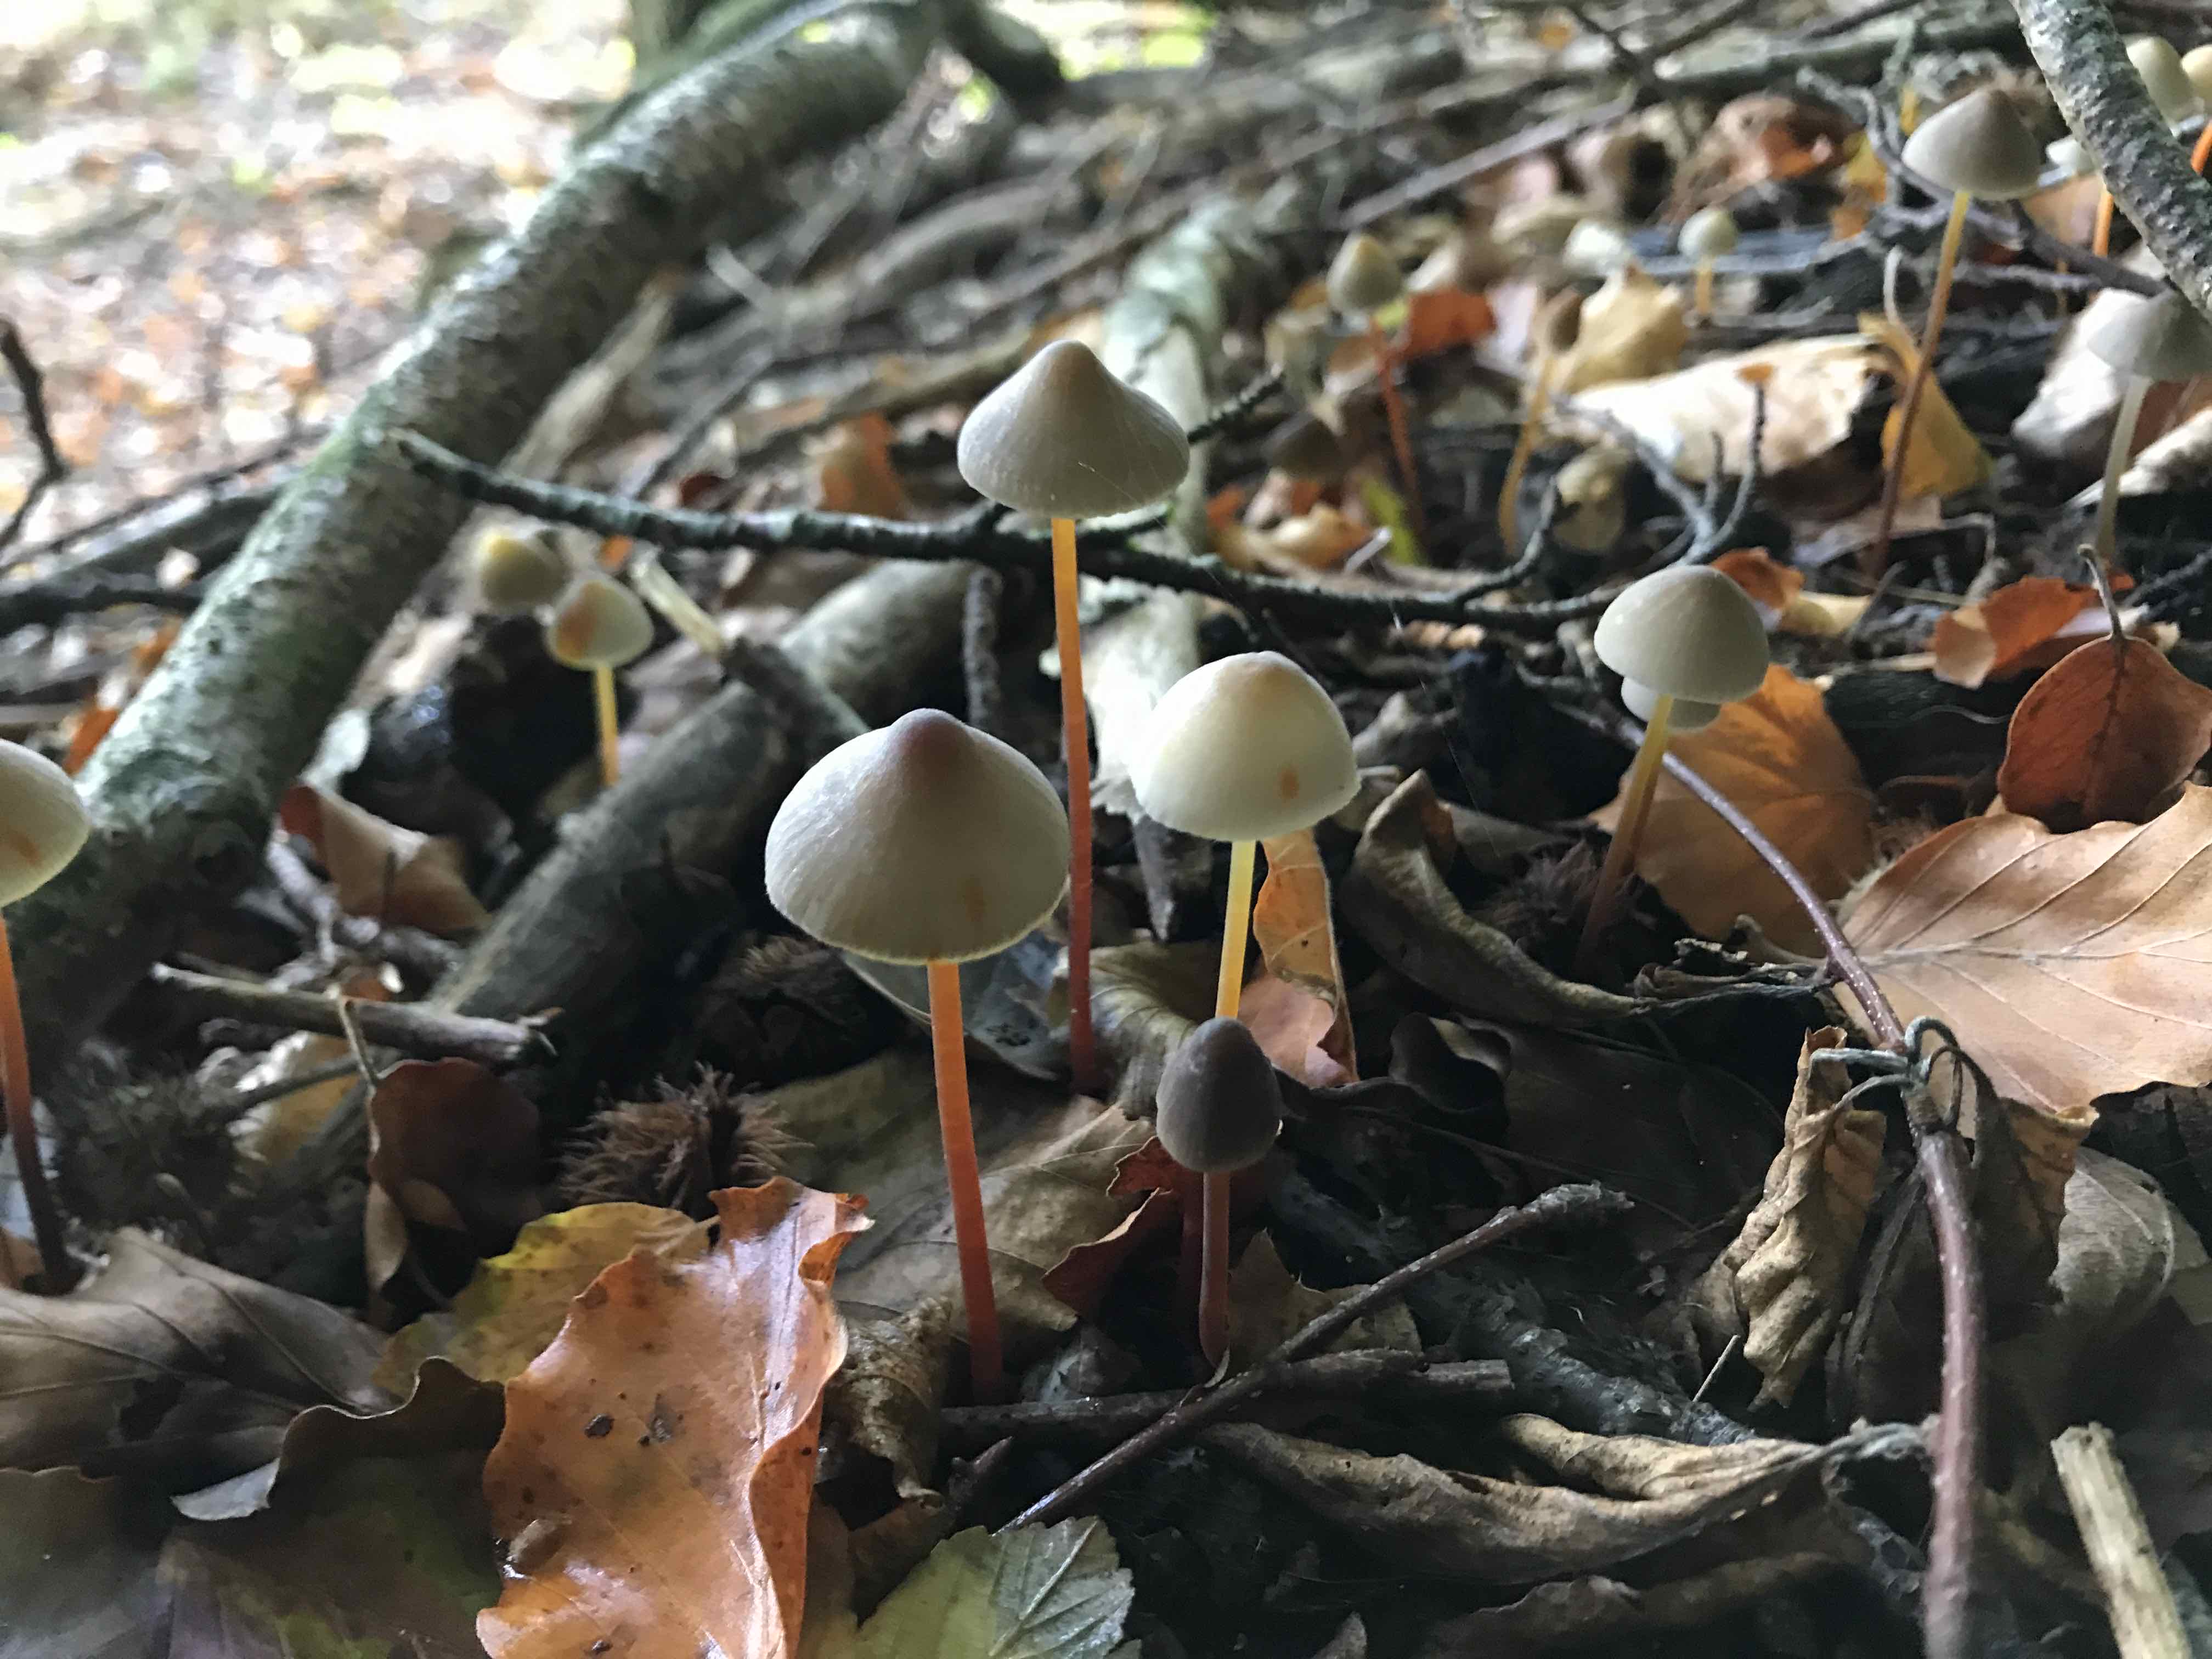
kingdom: Fungi
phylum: Basidiomycota
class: Agaricomycetes
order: Agaricales
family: Mycenaceae
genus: Mycena
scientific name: Mycena crocata
